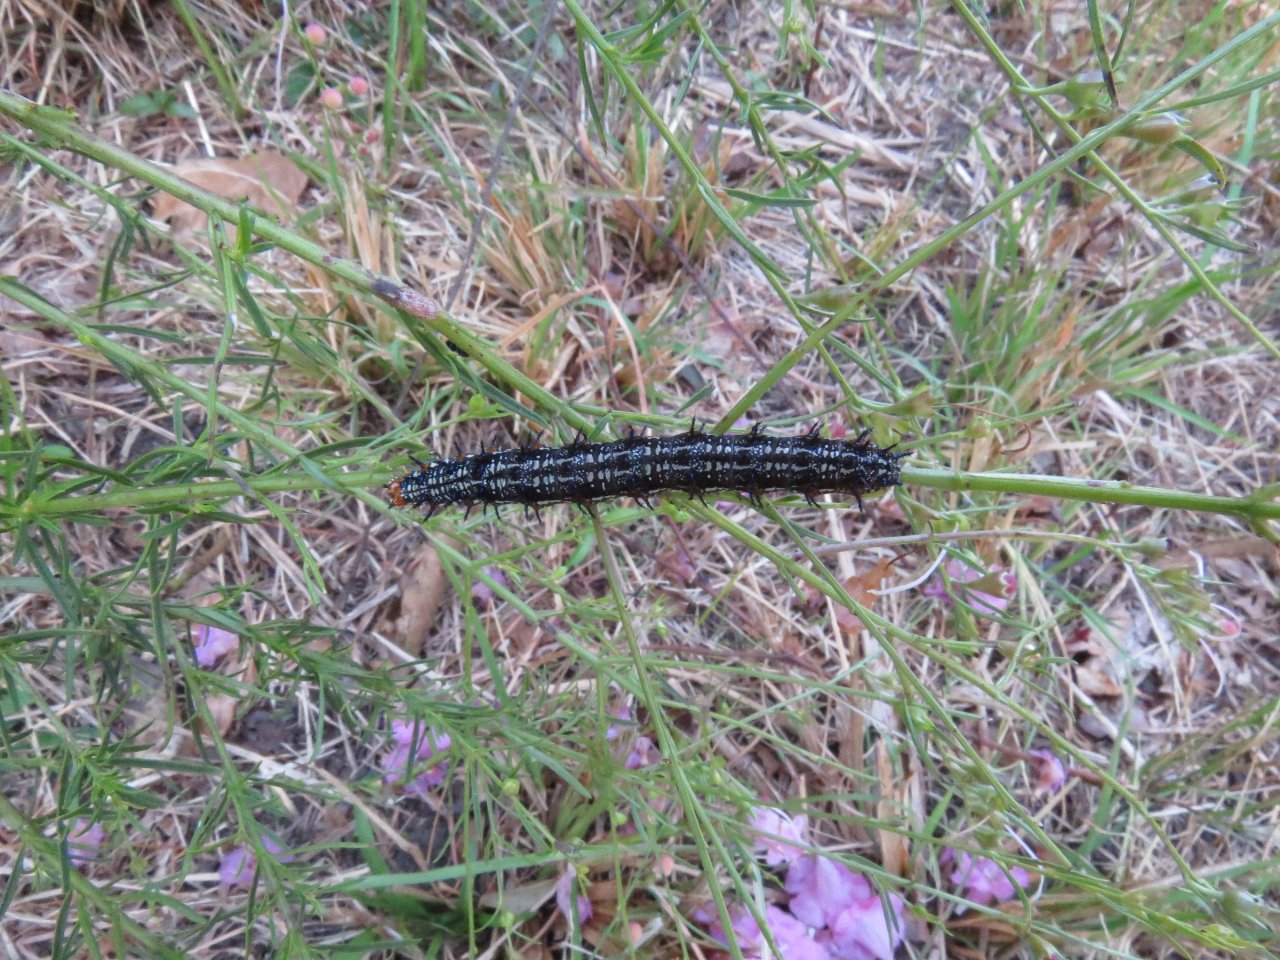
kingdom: Animalia
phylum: Arthropoda
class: Insecta
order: Lepidoptera
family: Nymphalidae
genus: Junonia
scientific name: Junonia coenia
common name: Common Buckeye
